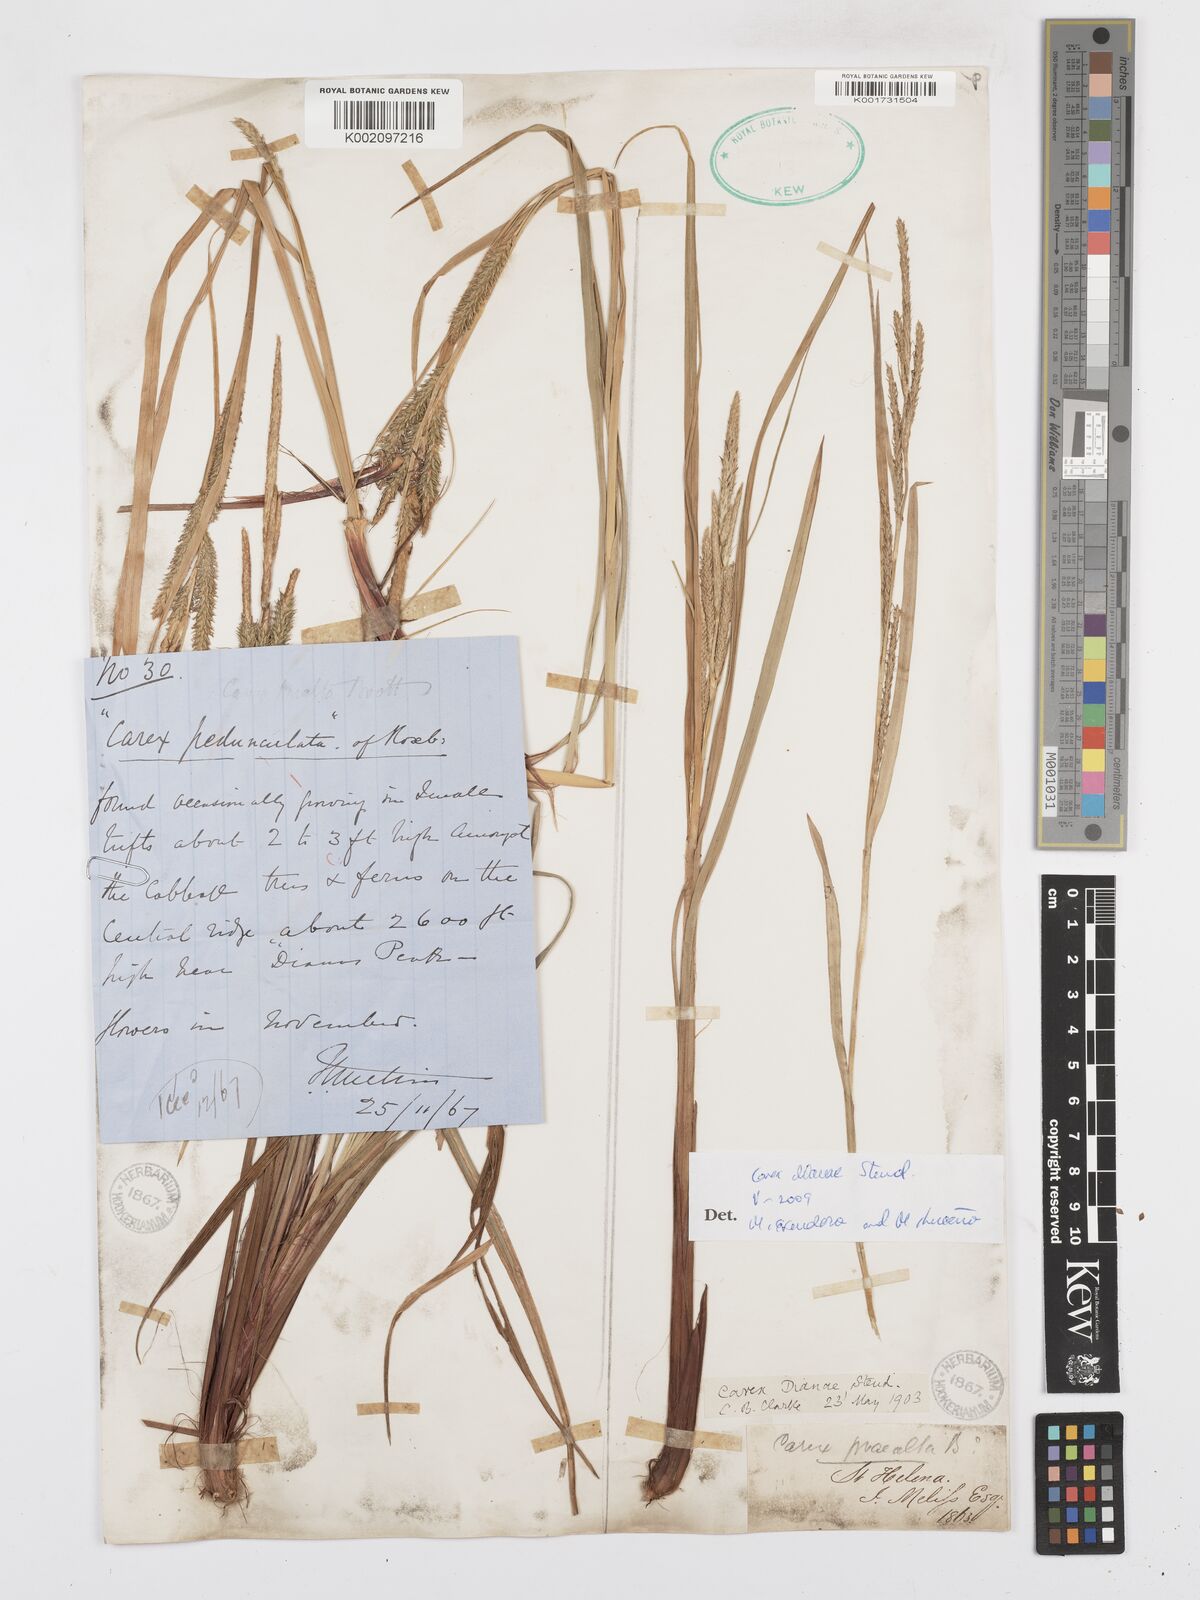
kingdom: Plantae
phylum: Tracheophyta
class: Liliopsida
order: Poales
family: Cyperaceae
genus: Carex
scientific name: Carex dianae
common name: Diana's peak grass
